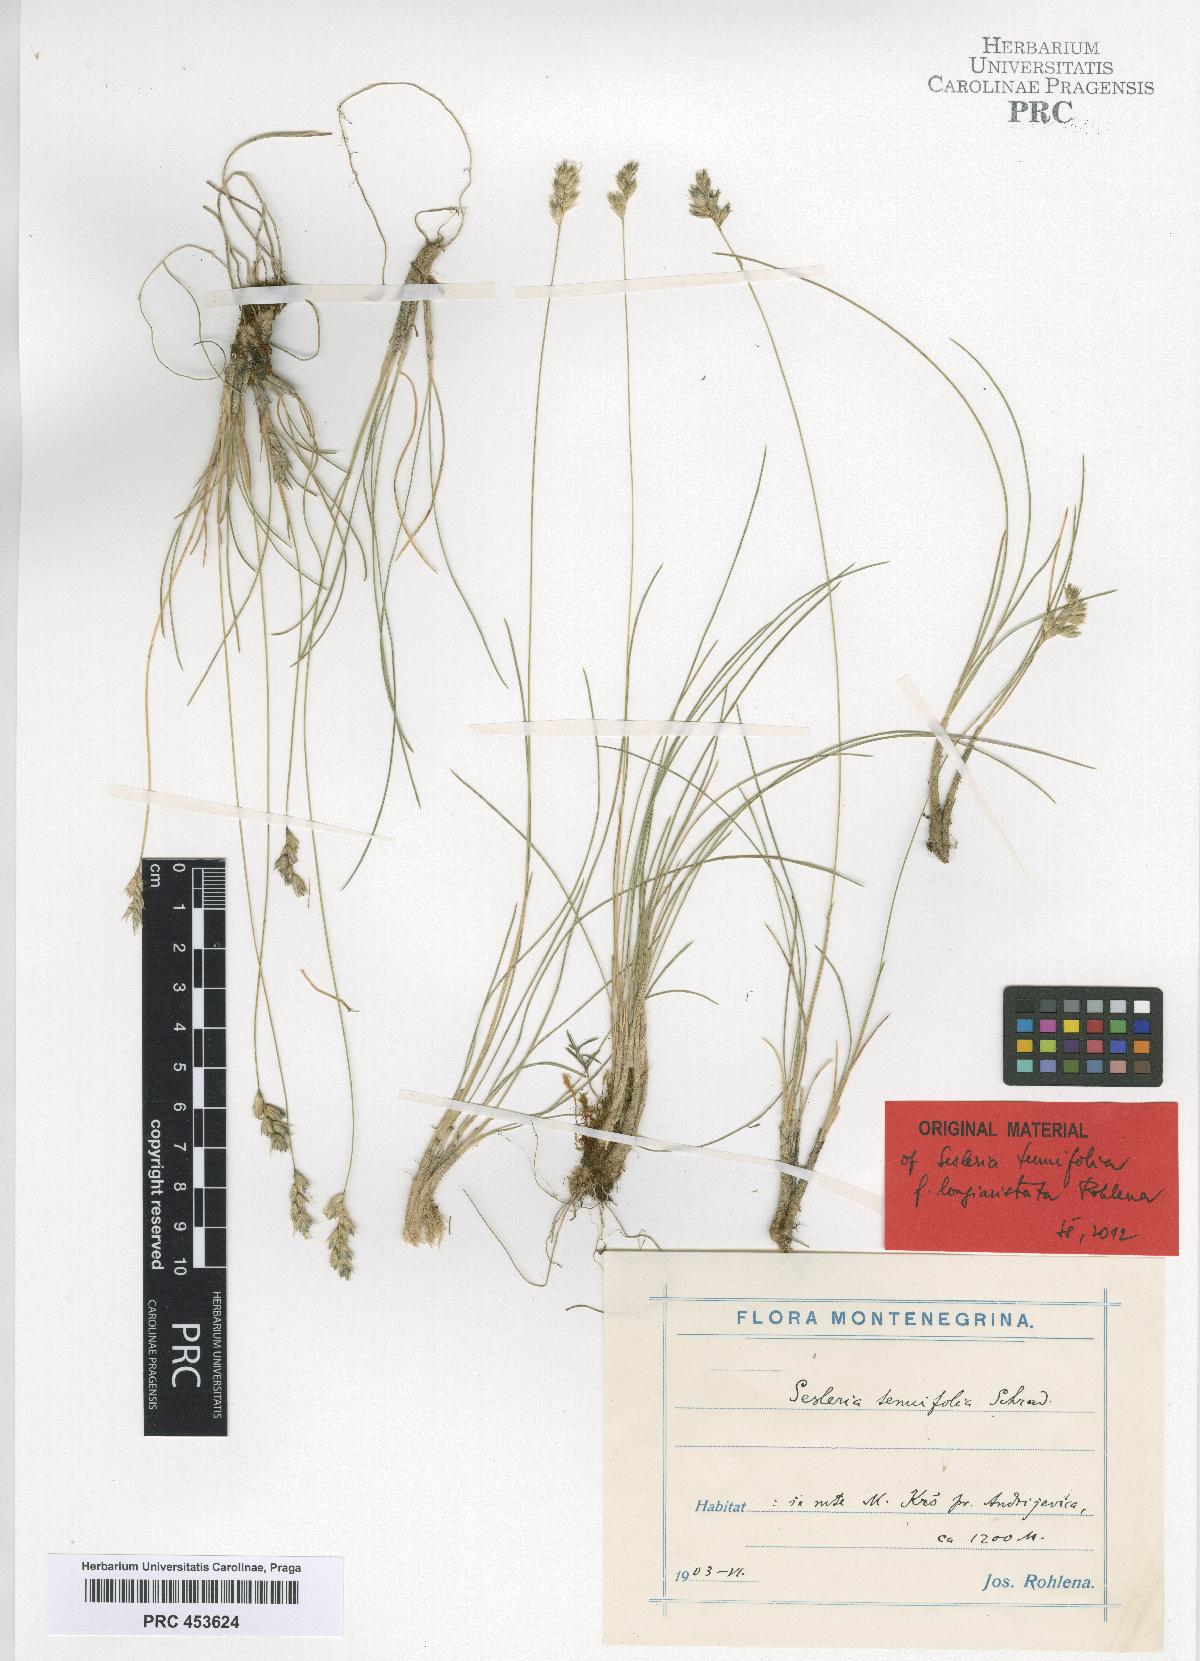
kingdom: Plantae
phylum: Tracheophyta
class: Liliopsida
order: Poales
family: Poaceae
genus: Sesleria
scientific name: Sesleria
